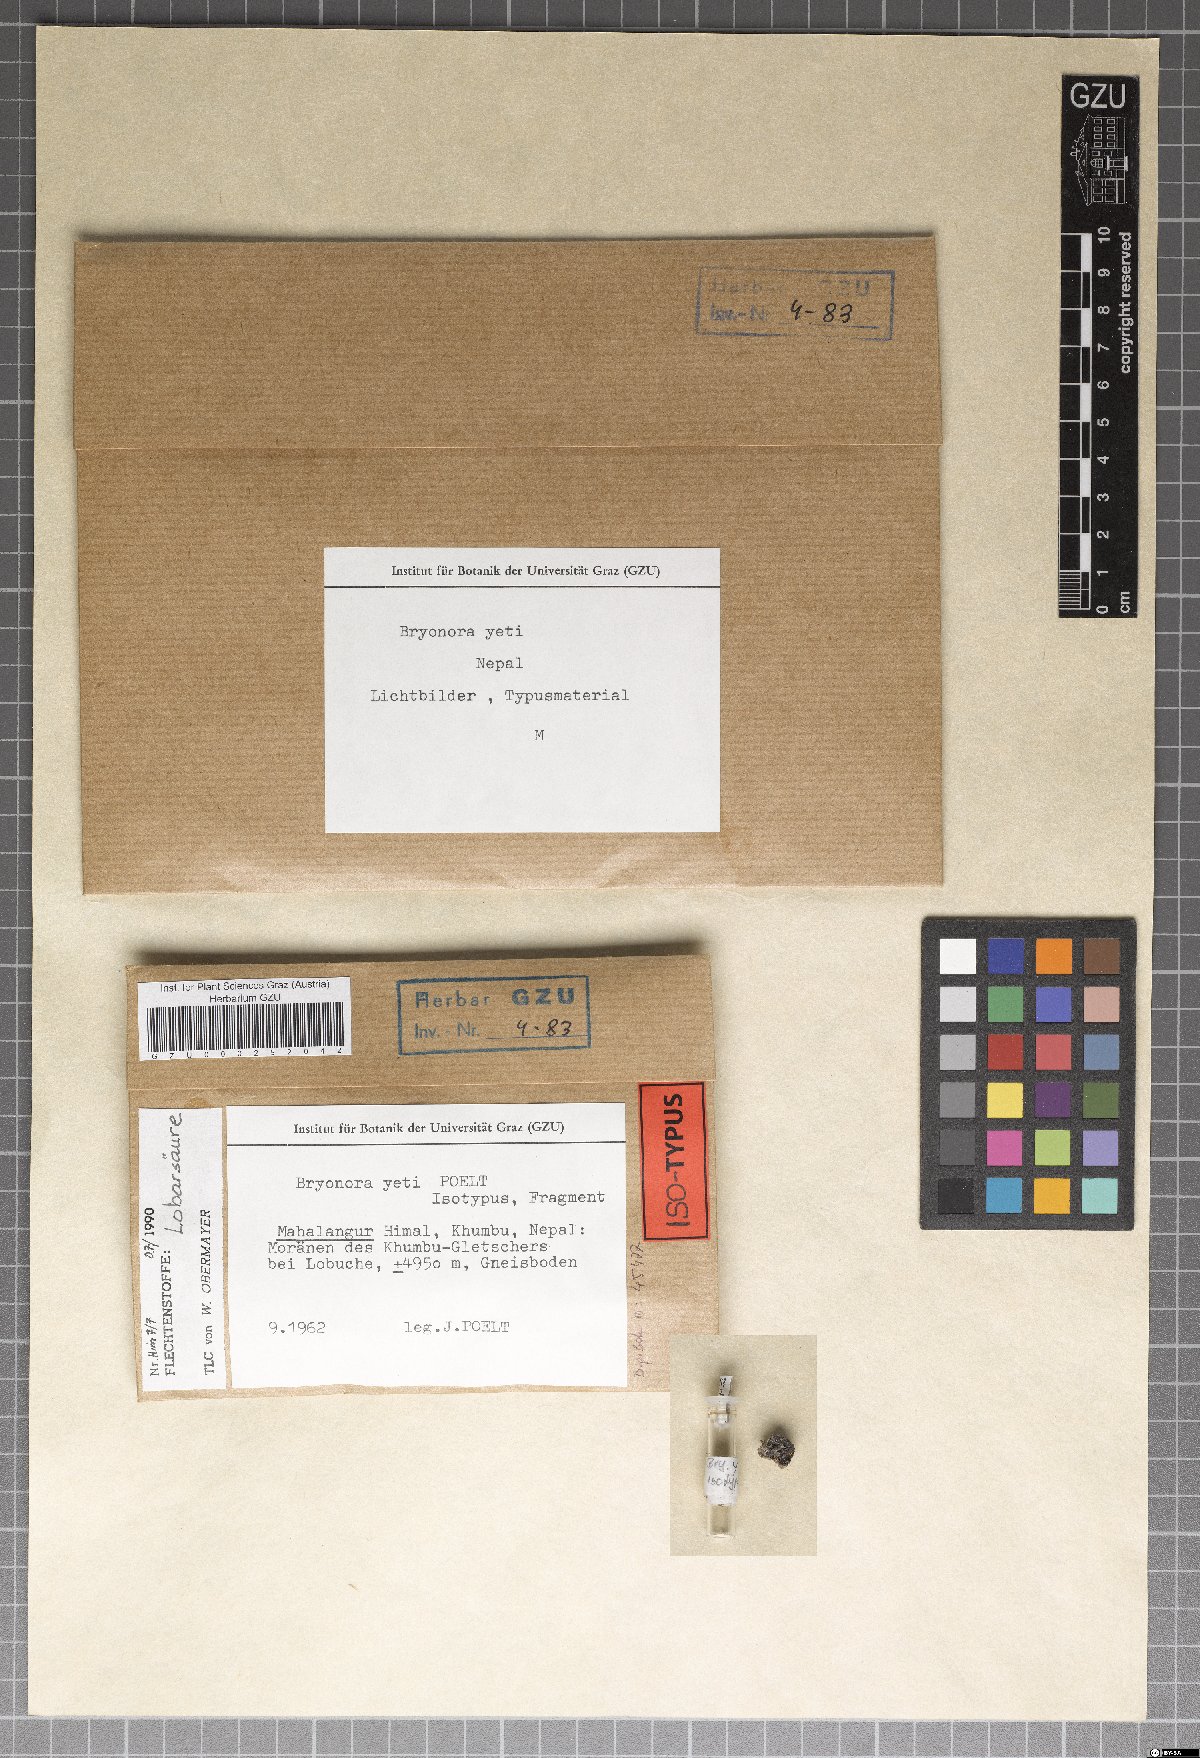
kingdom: Fungi
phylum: Ascomycota
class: Lecanoromycetes
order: Lecanorales
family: Lecanoraceae
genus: Bryonora
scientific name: Bryonora yeti
